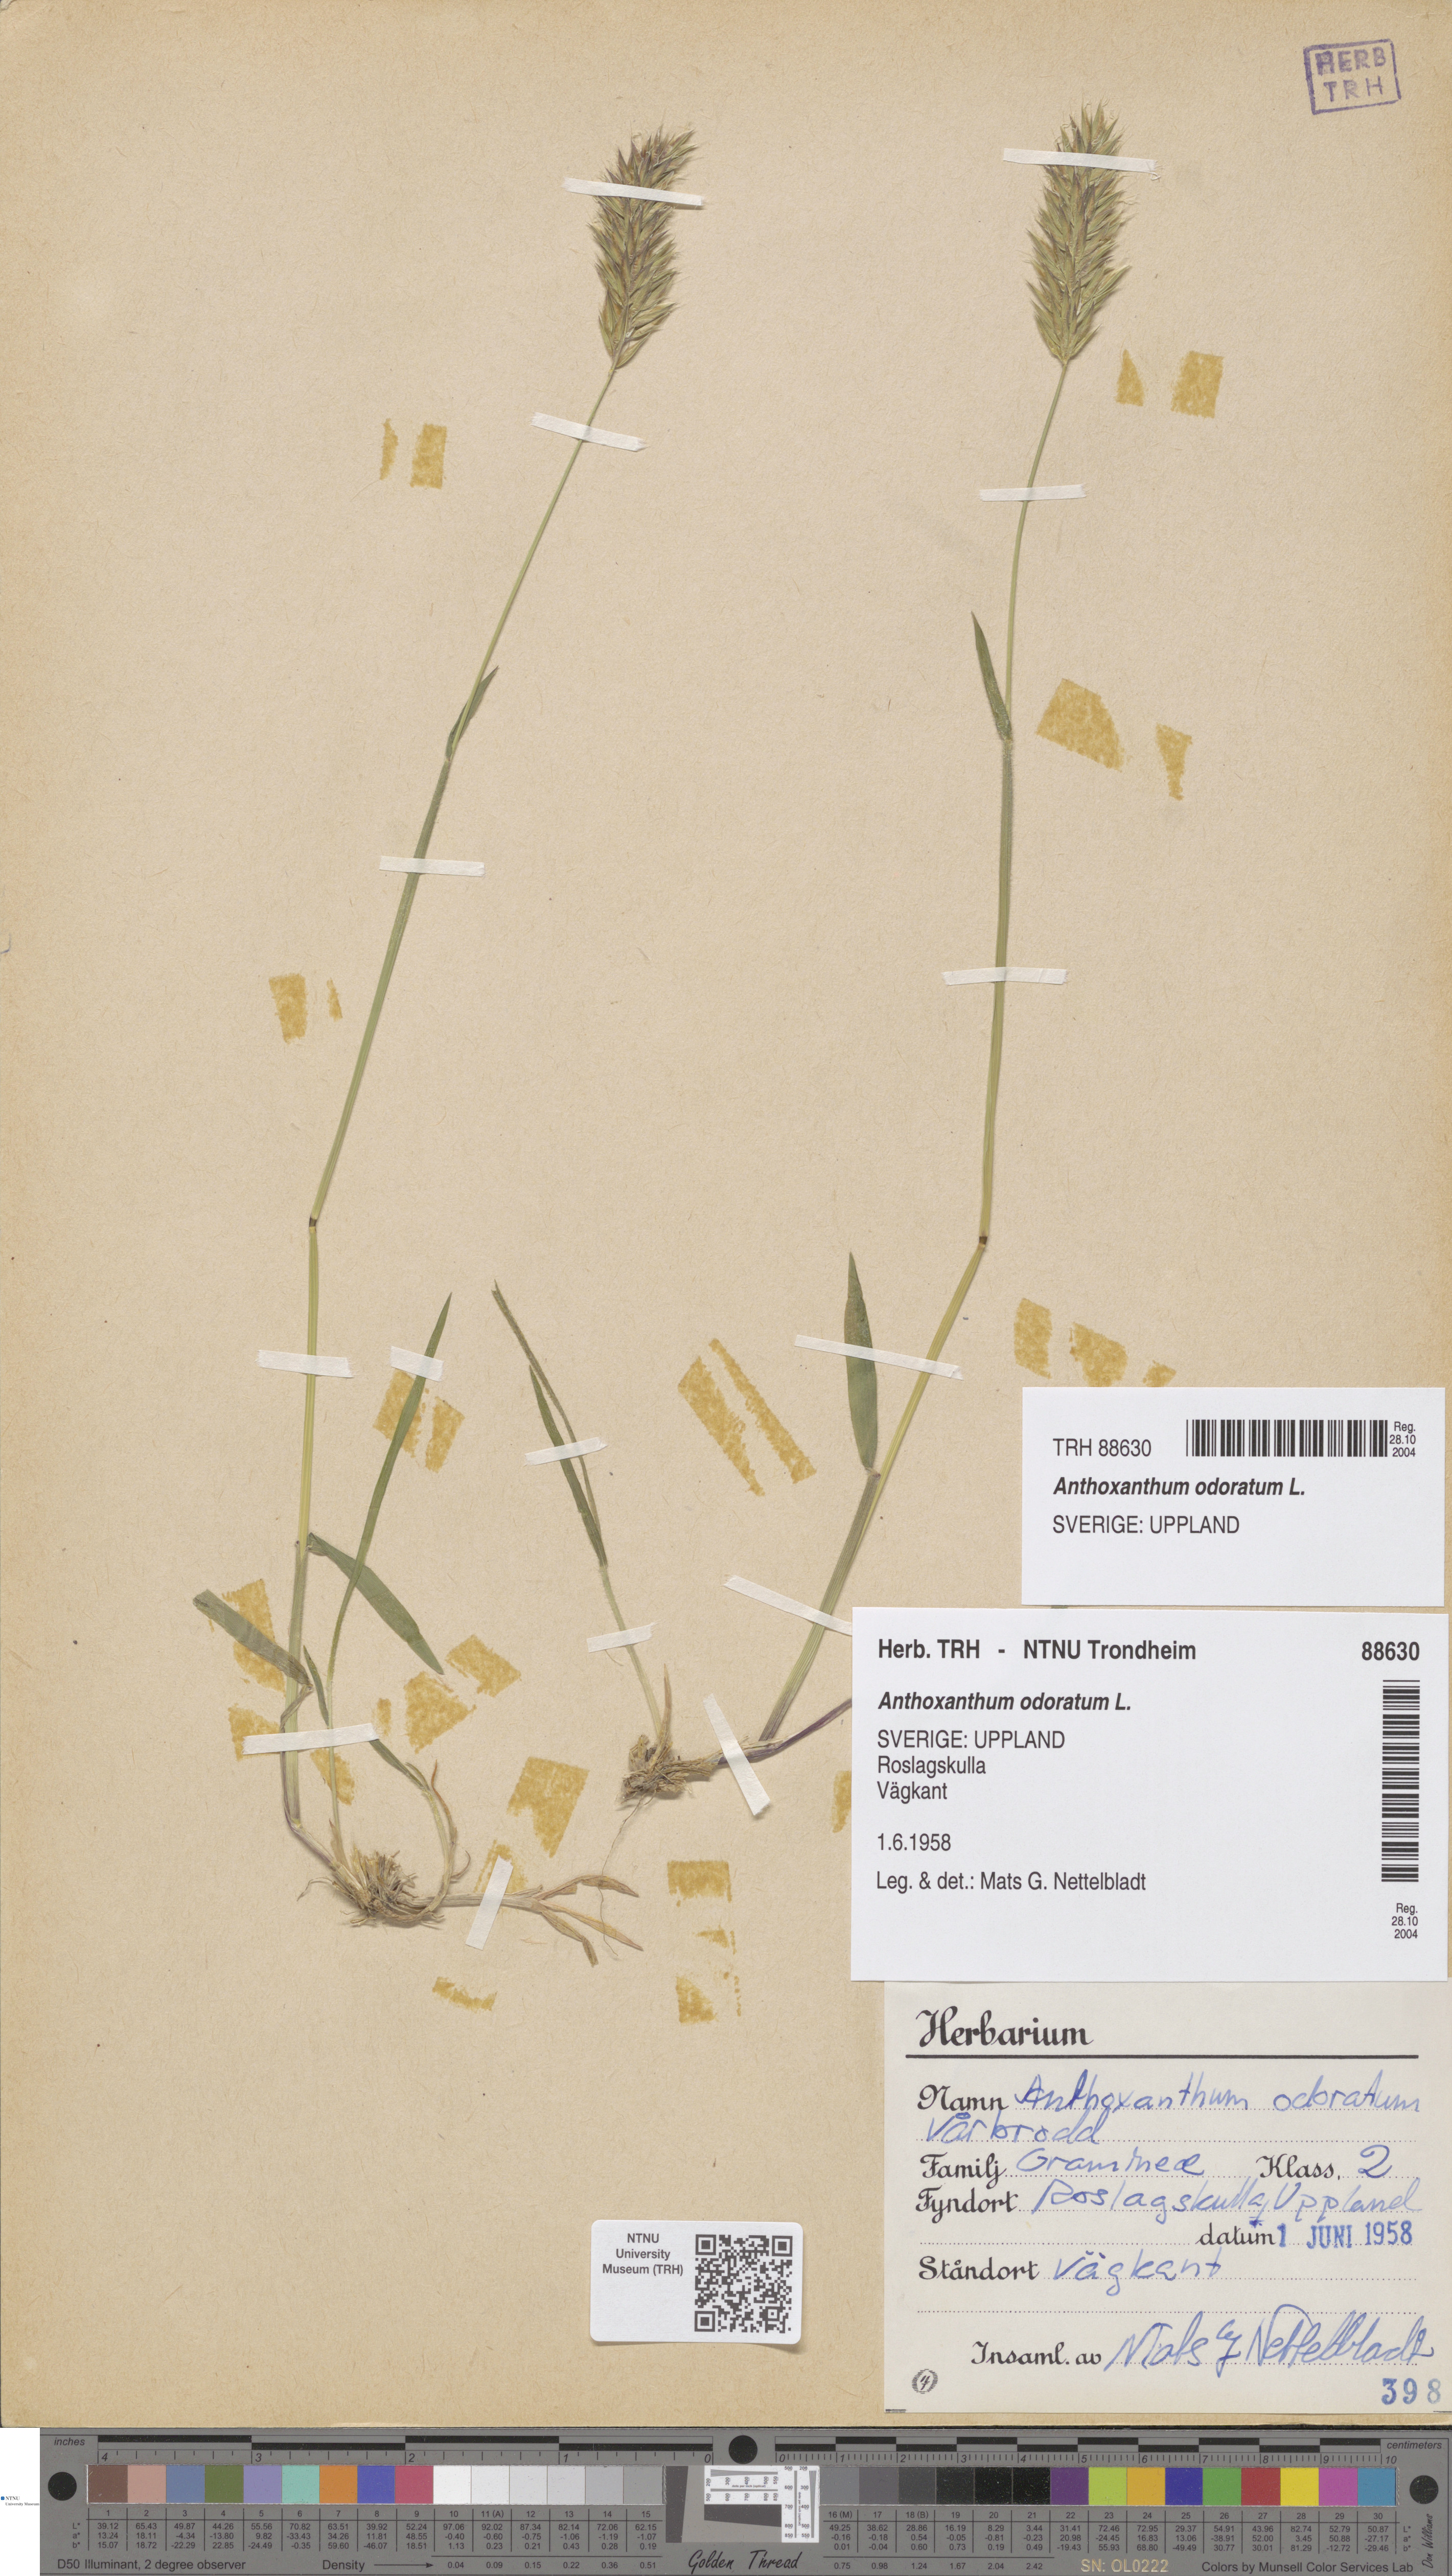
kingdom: Plantae
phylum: Tracheophyta
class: Liliopsida
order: Poales
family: Poaceae
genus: Anthoxanthum
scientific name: Anthoxanthum odoratum
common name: Sweet vernalgrass
